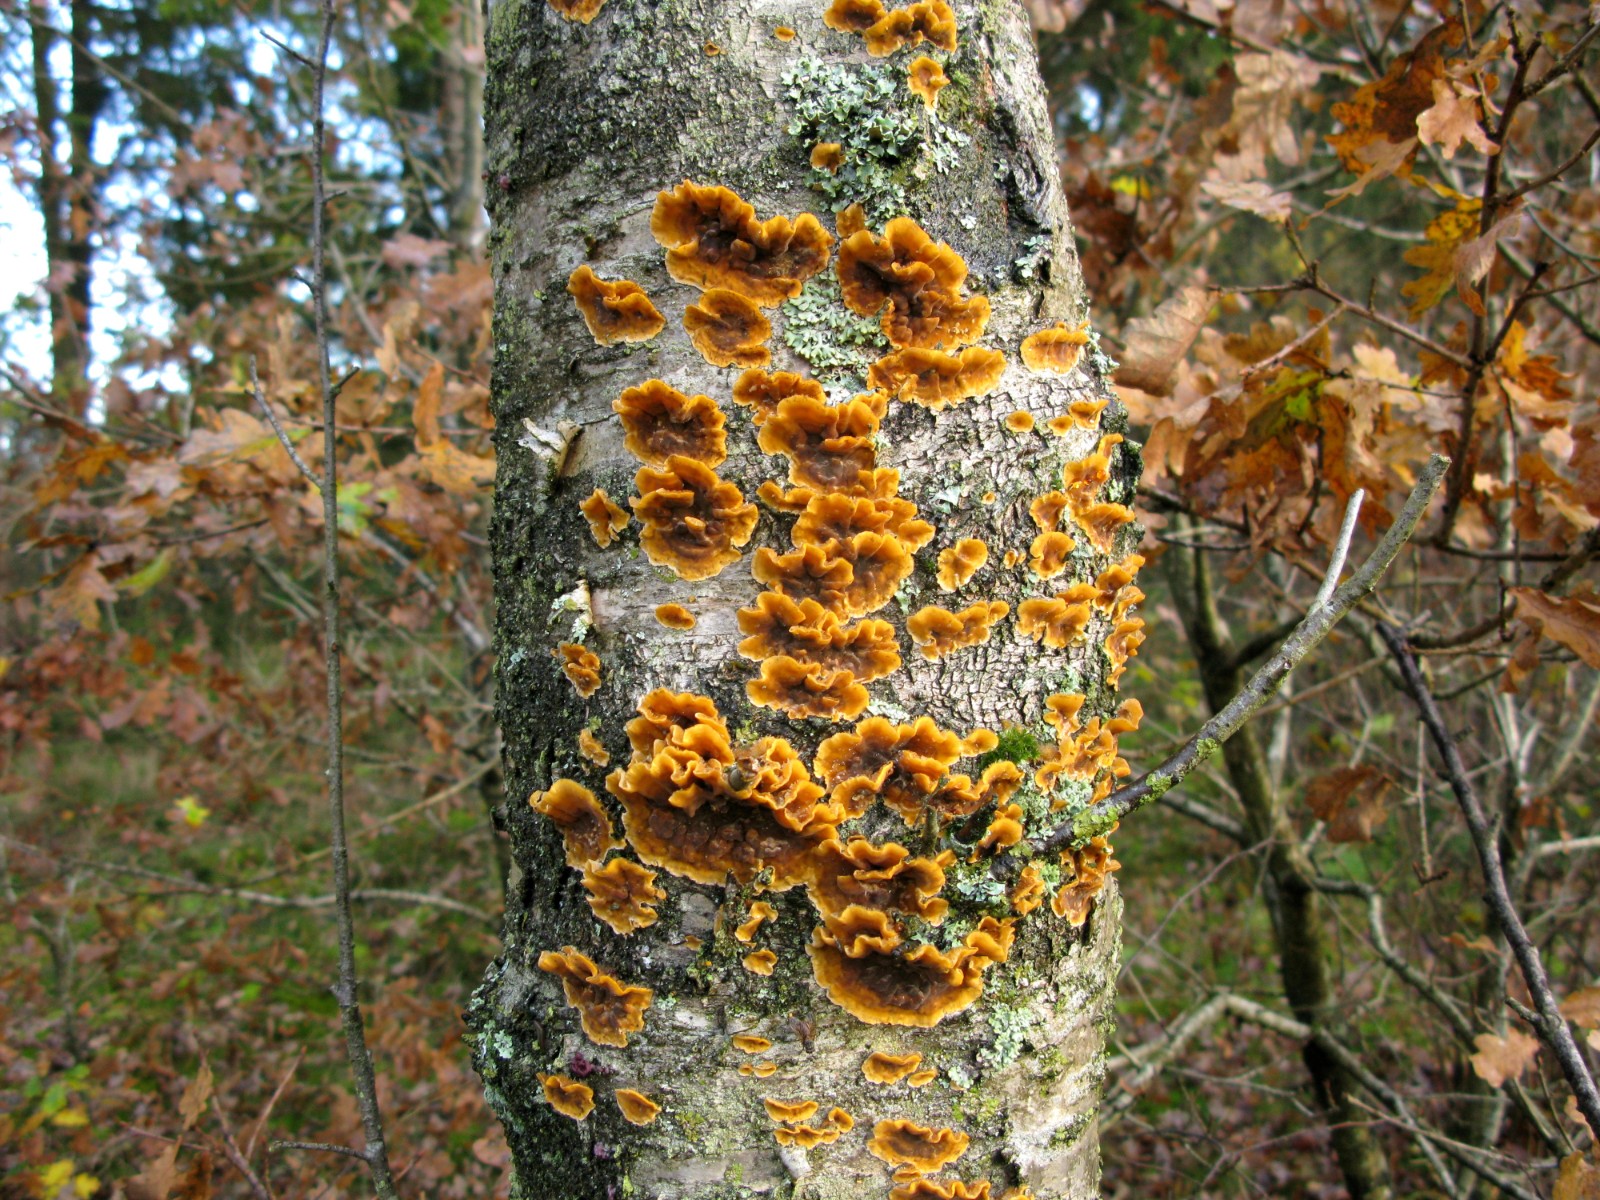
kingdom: Fungi
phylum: Basidiomycota
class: Agaricomycetes
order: Russulales
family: Stereaceae
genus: Stereum
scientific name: Stereum hirsutum
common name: håret lædersvamp
